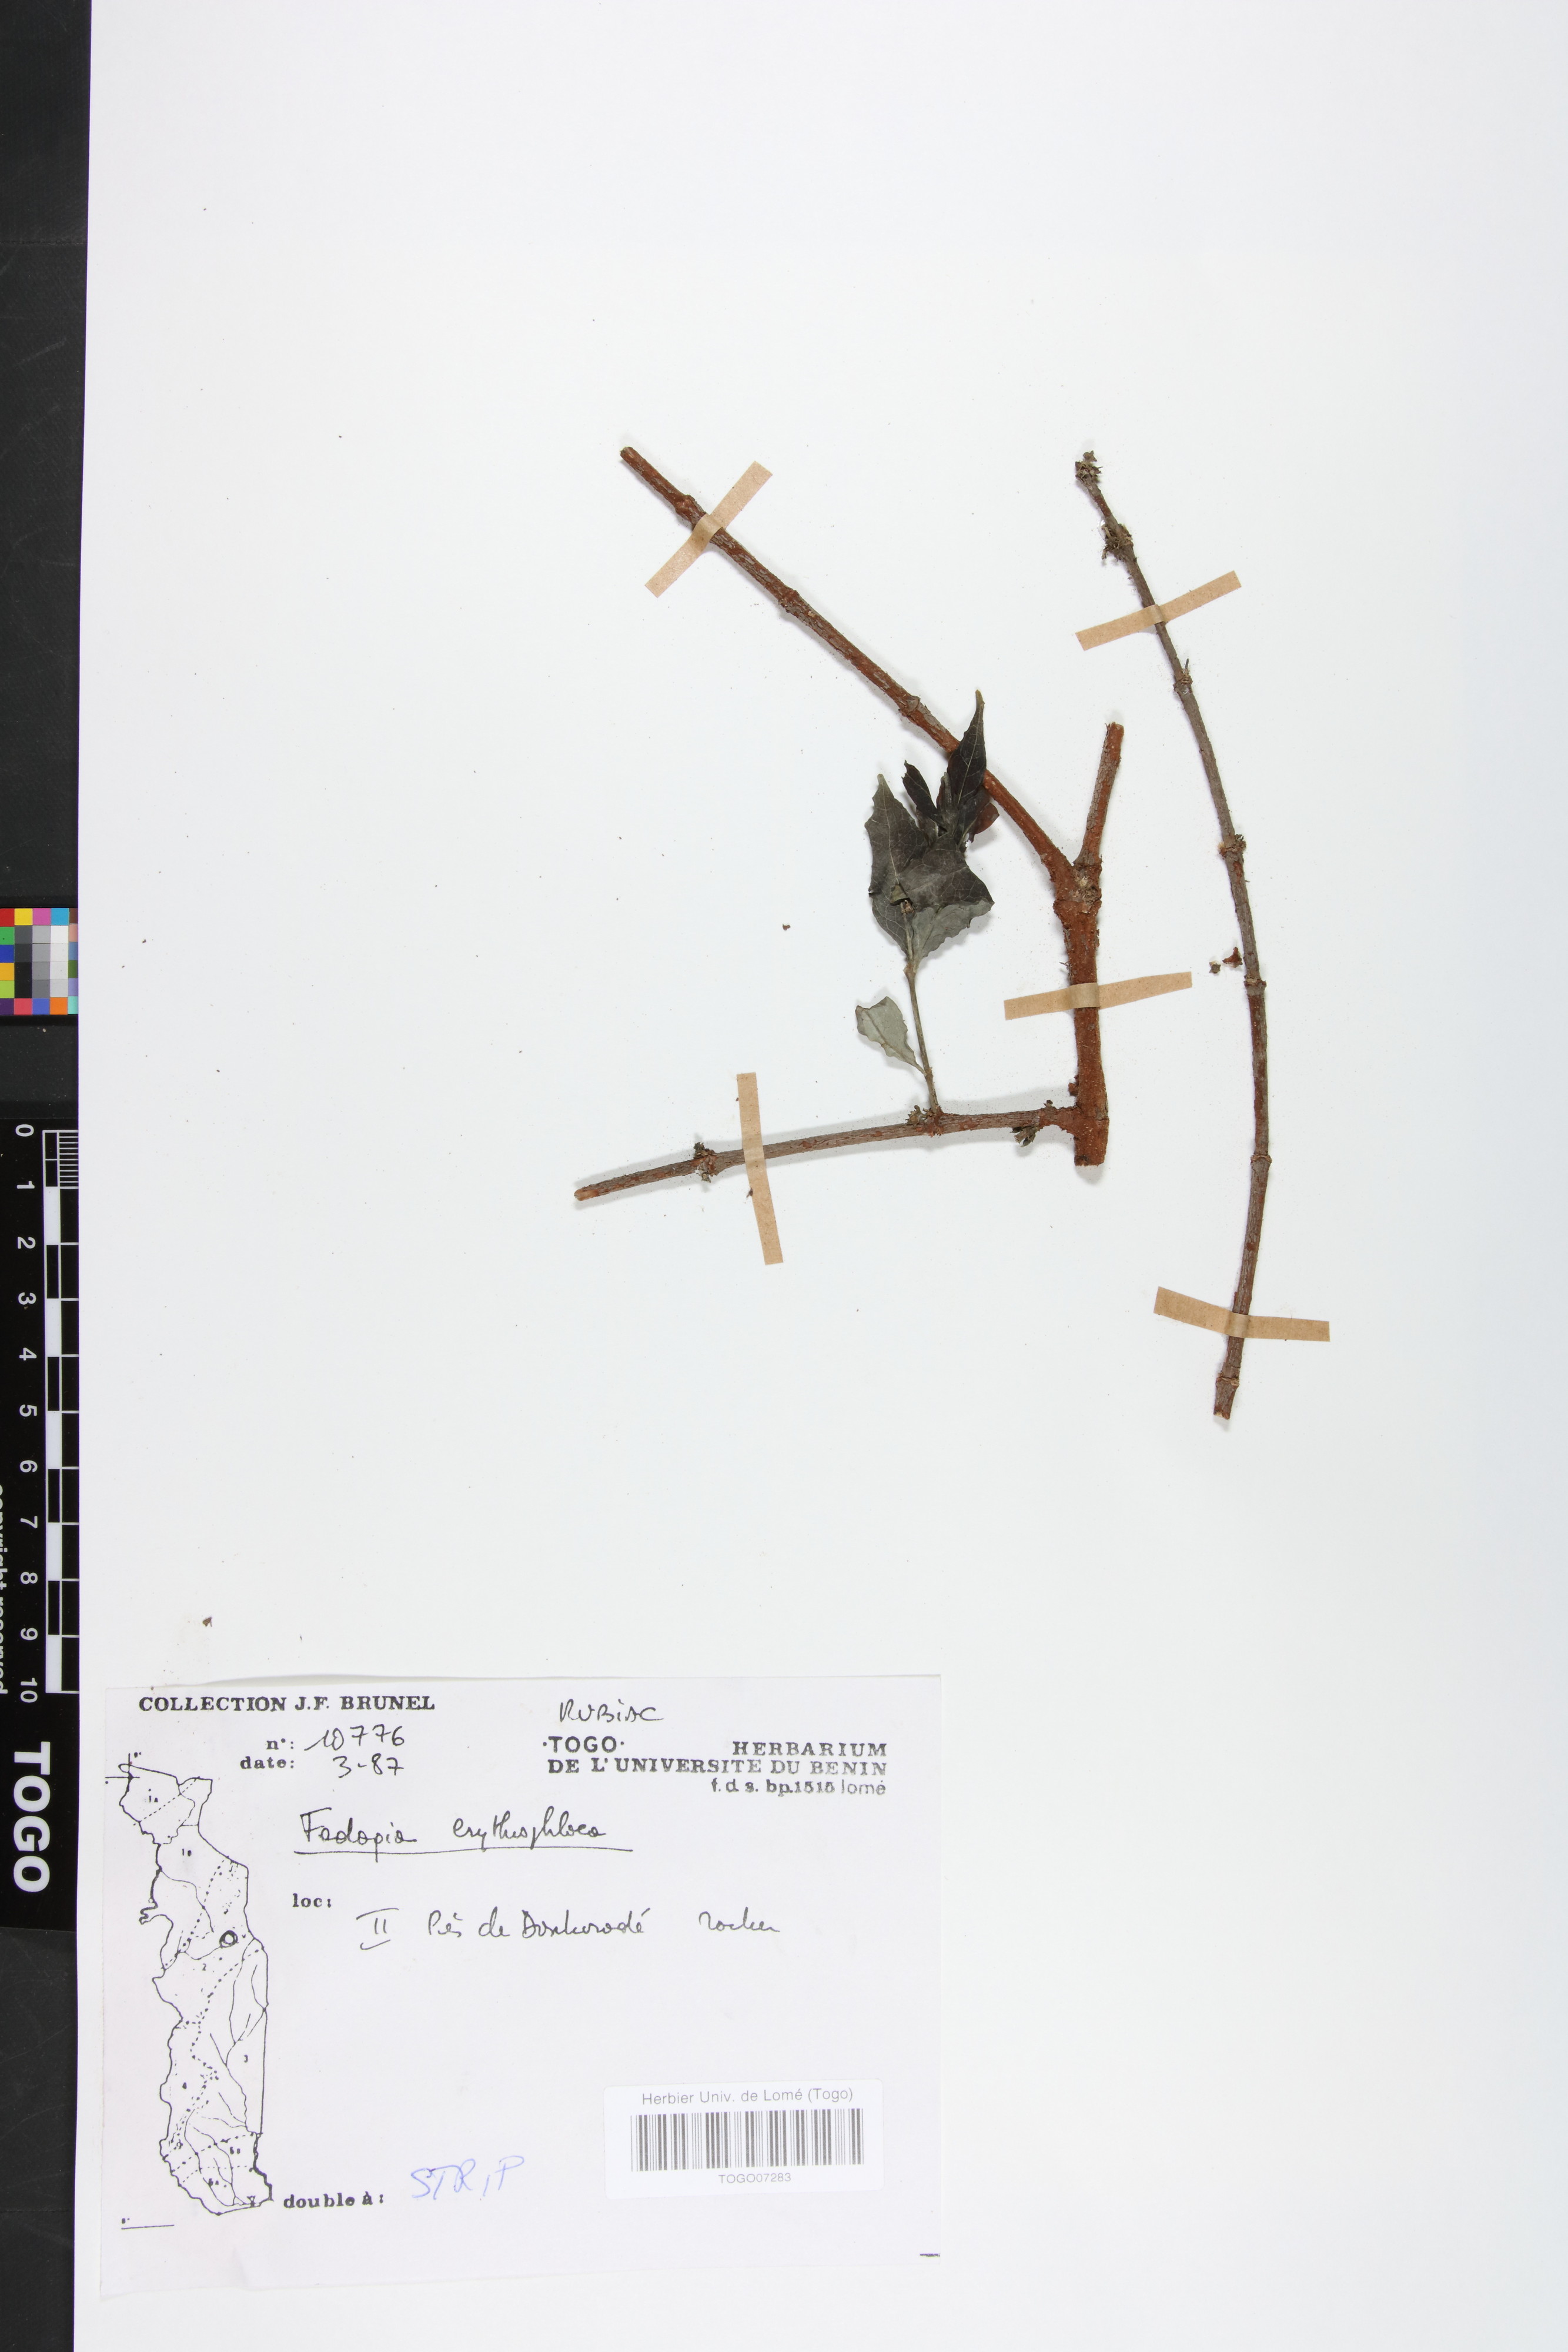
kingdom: Plantae
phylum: Tracheophyta
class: Magnoliopsida
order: Gentianales
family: Rubiaceae
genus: Fadogia
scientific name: Fadogia erythrophloea
